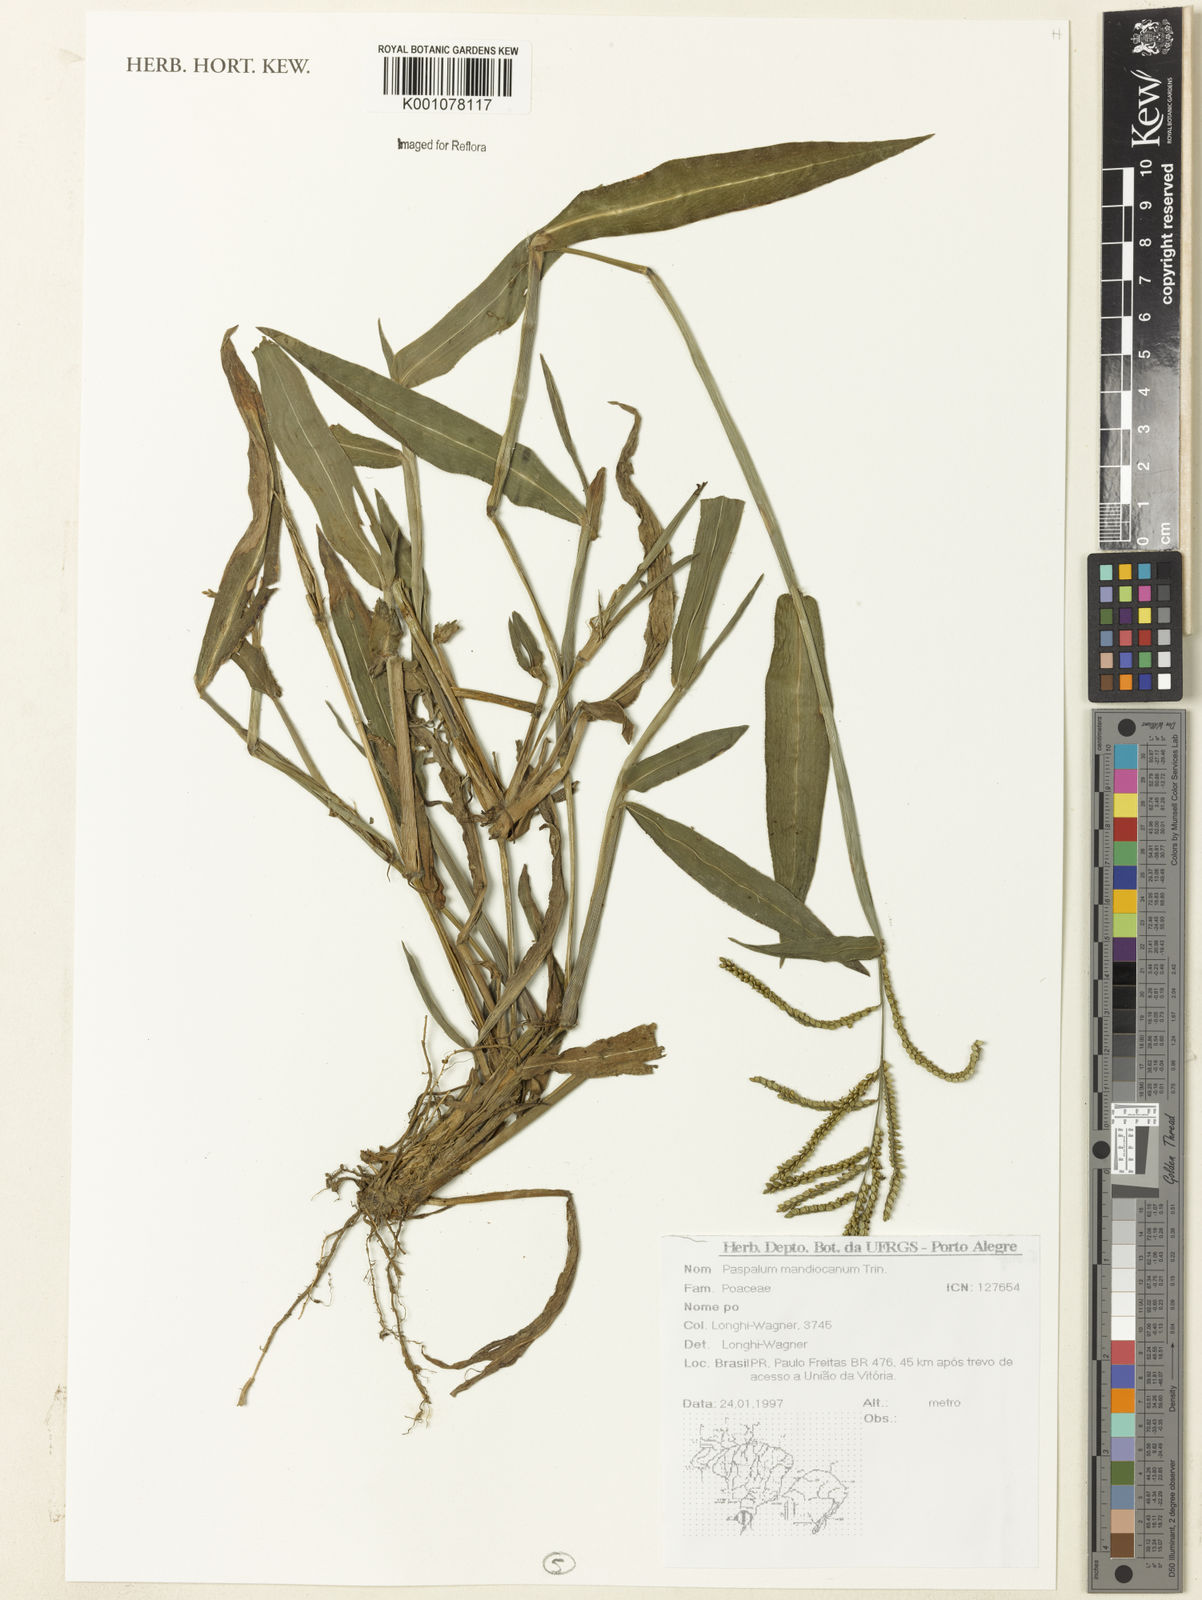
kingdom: Plantae
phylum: Tracheophyta
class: Liliopsida
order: Poales
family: Poaceae
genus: Paspalum
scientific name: Paspalum mandiocanum
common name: Paspalum
